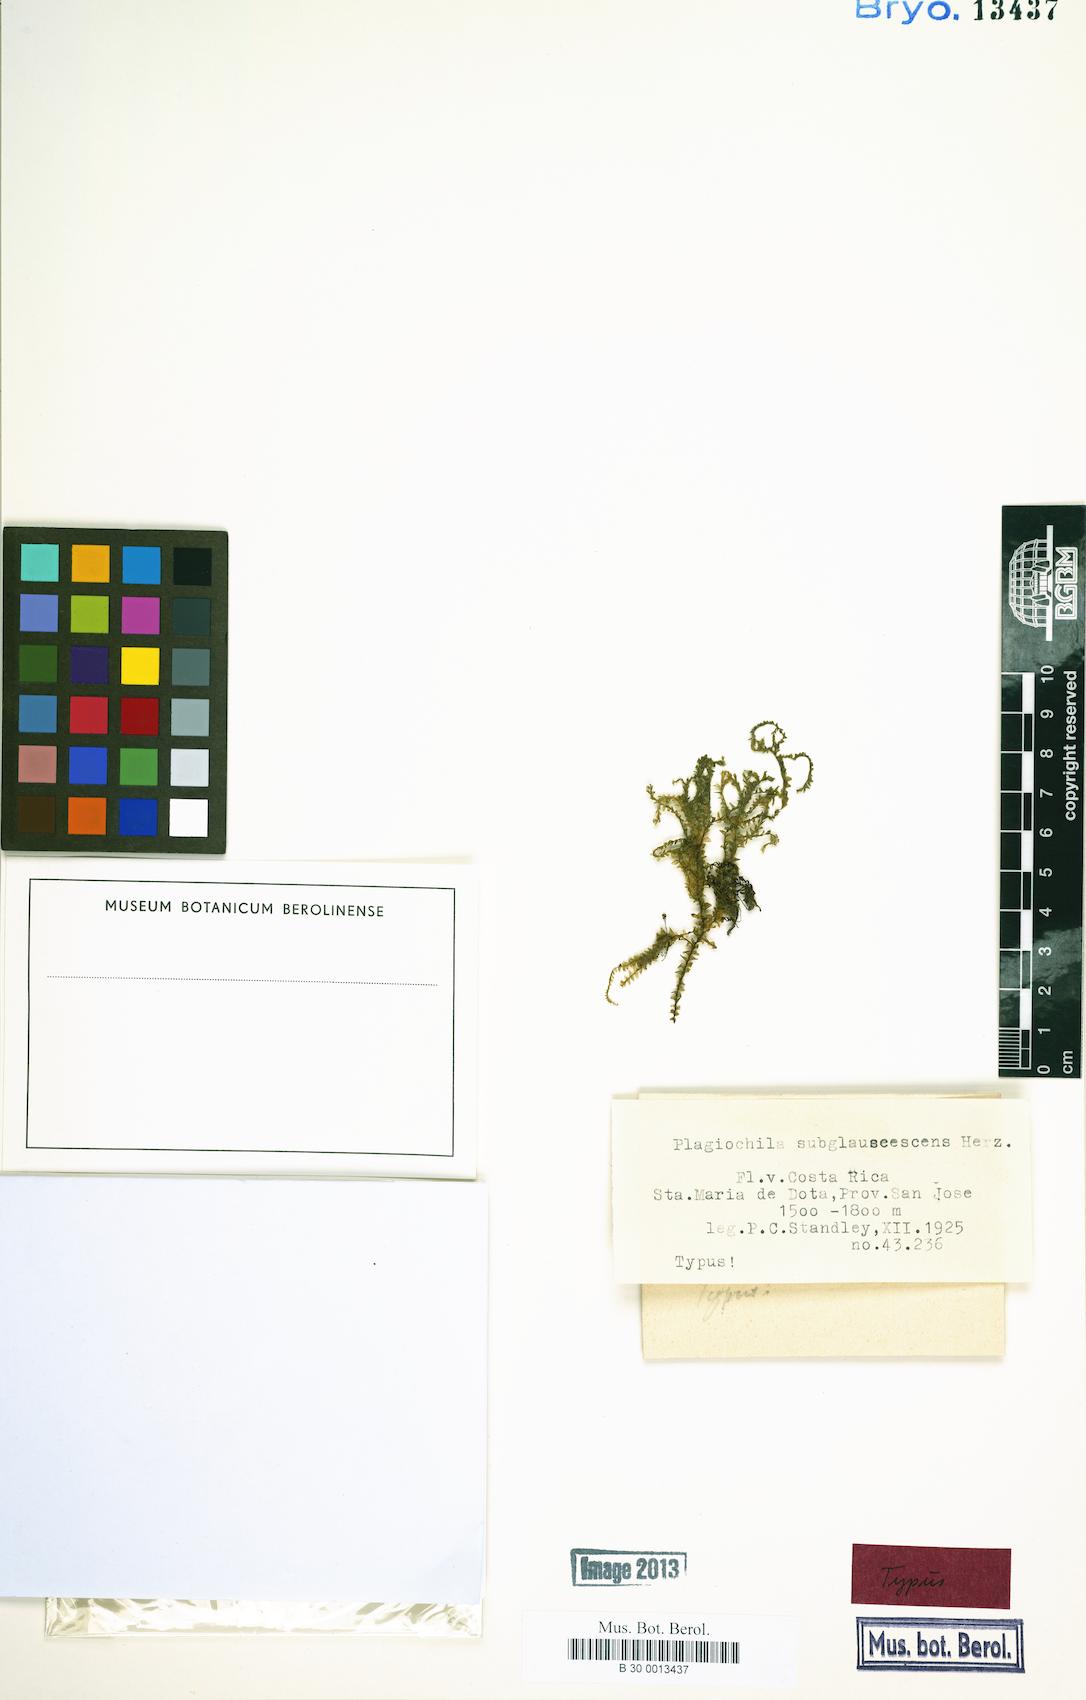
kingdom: Plantae
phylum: Marchantiophyta
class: Jungermanniopsida
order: Jungermanniales
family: Plagiochilaceae
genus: Plagiochila
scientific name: Plagiochila diversifolia
